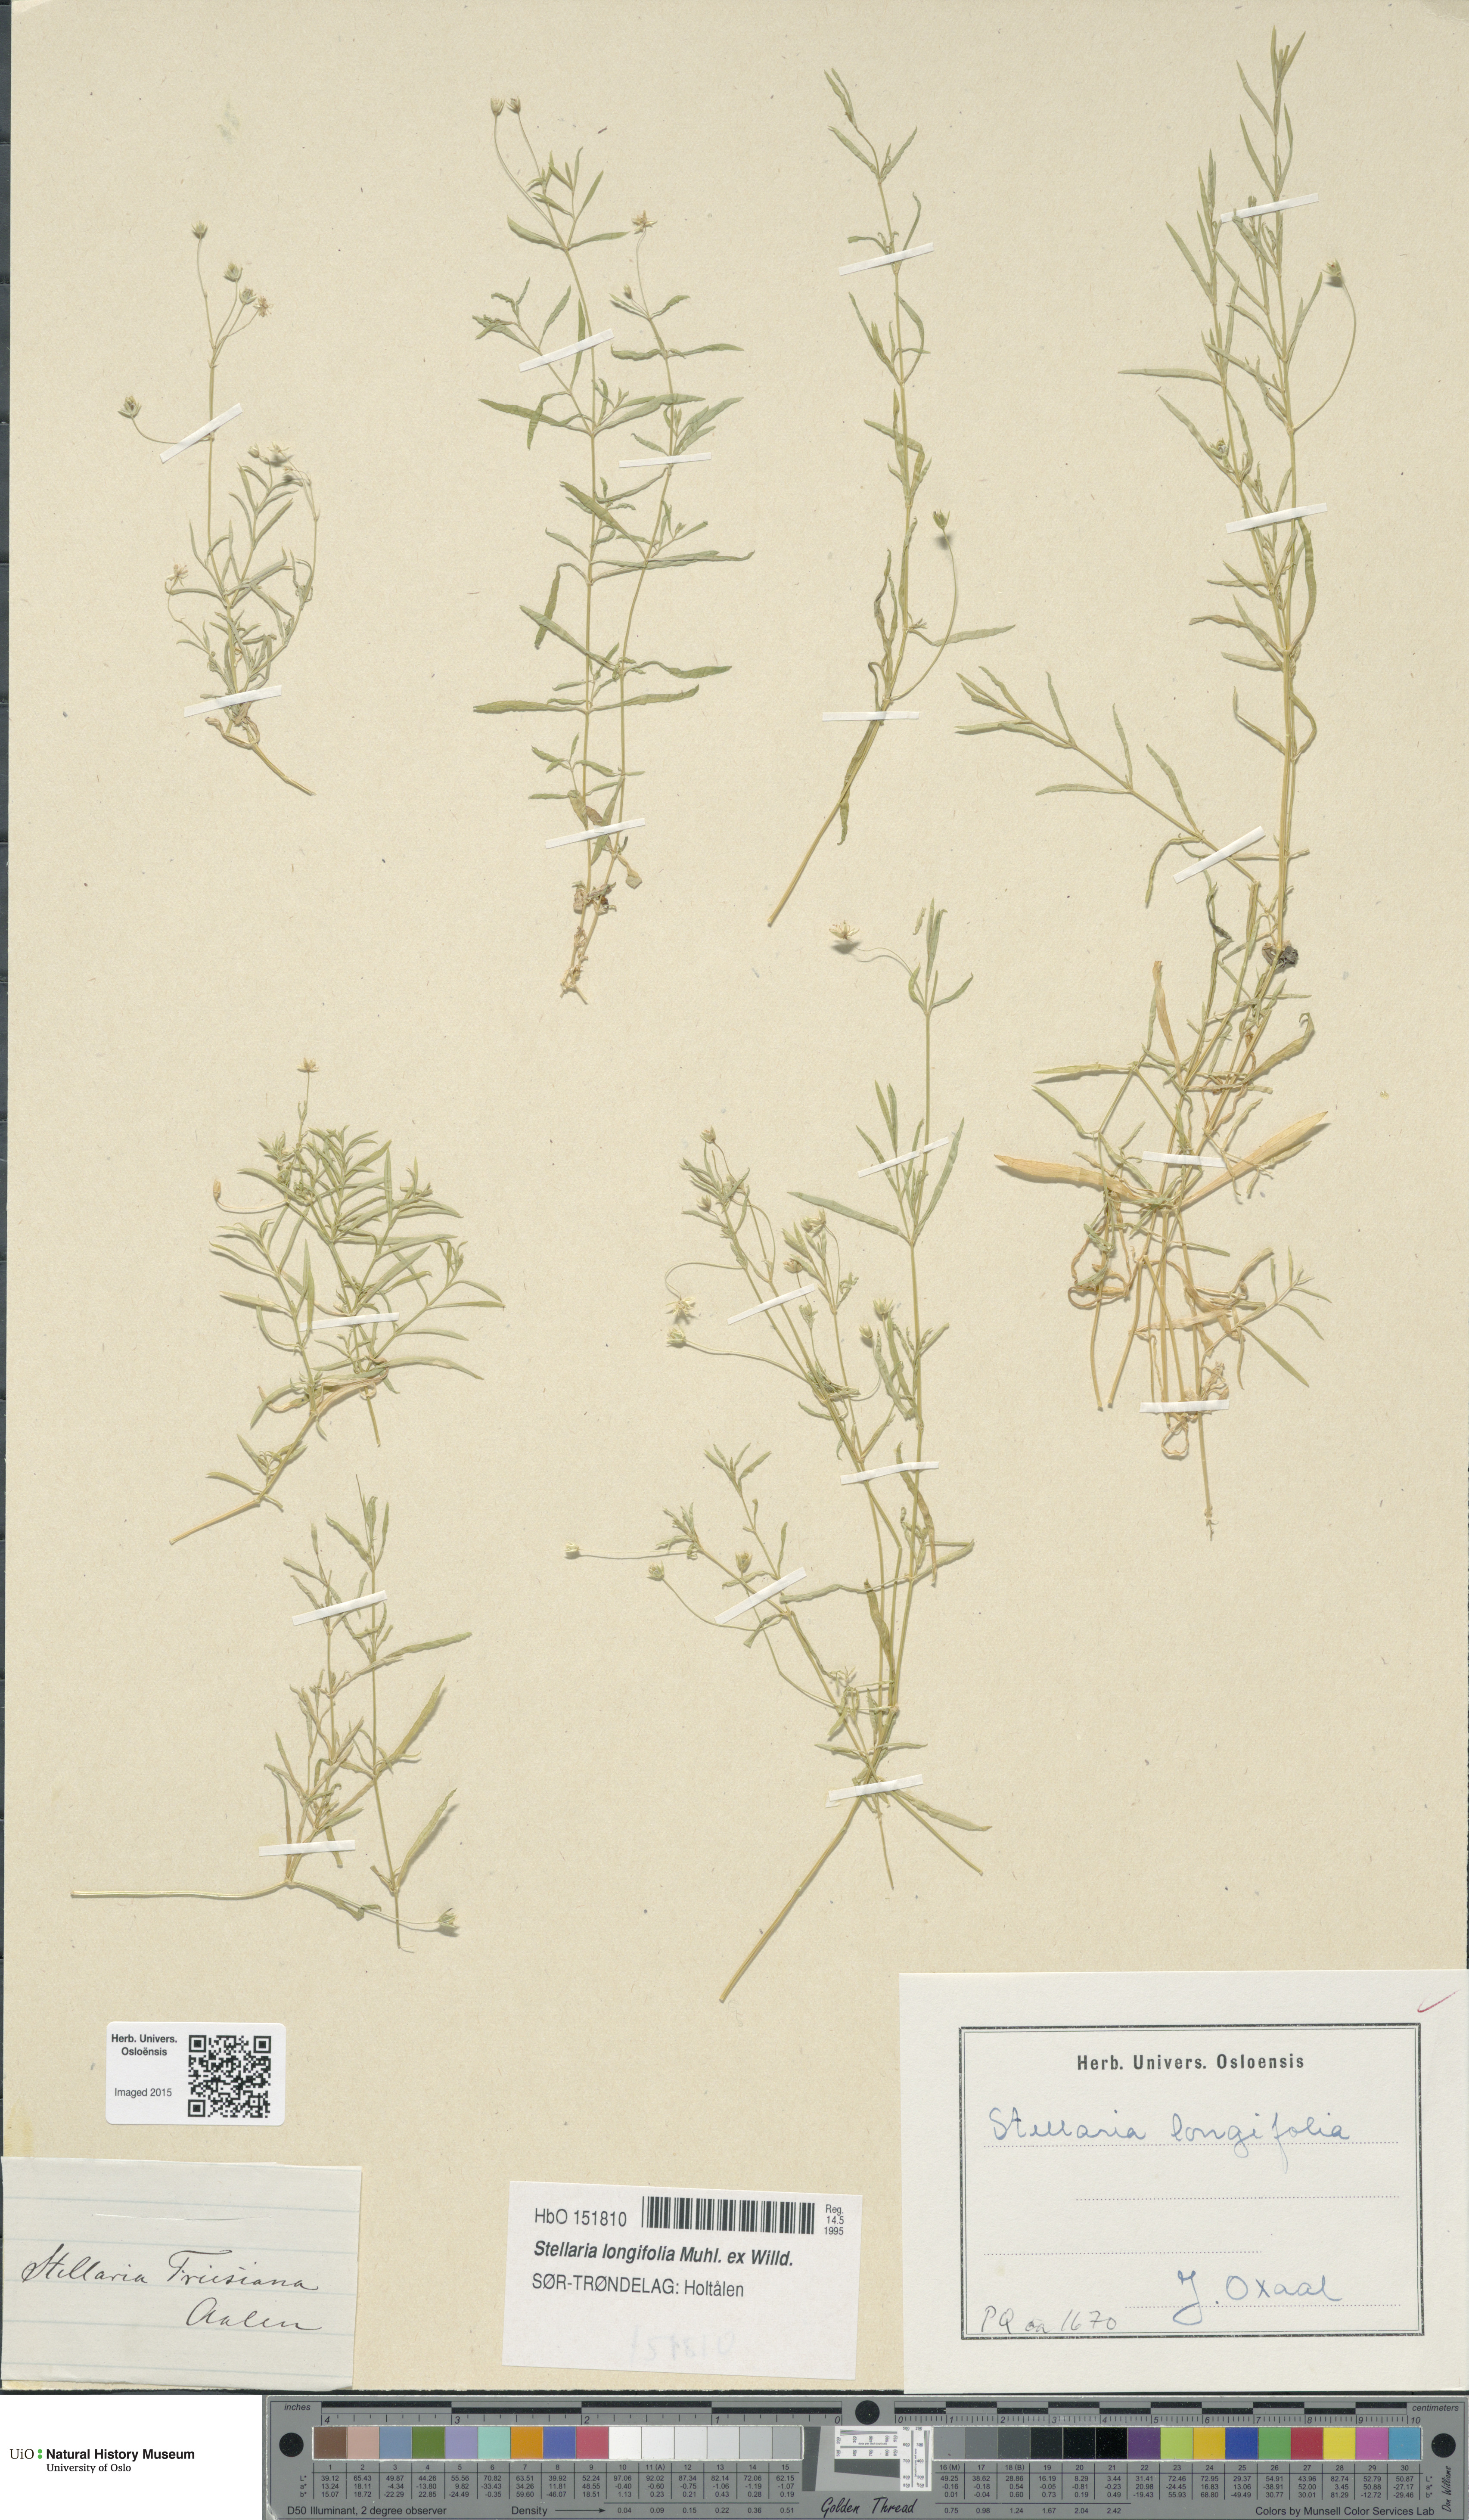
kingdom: Plantae
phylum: Tracheophyta
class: Magnoliopsida
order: Caryophyllales
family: Caryophyllaceae
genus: Stellaria
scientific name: Stellaria longifolia
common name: Long-leaved chickweed
